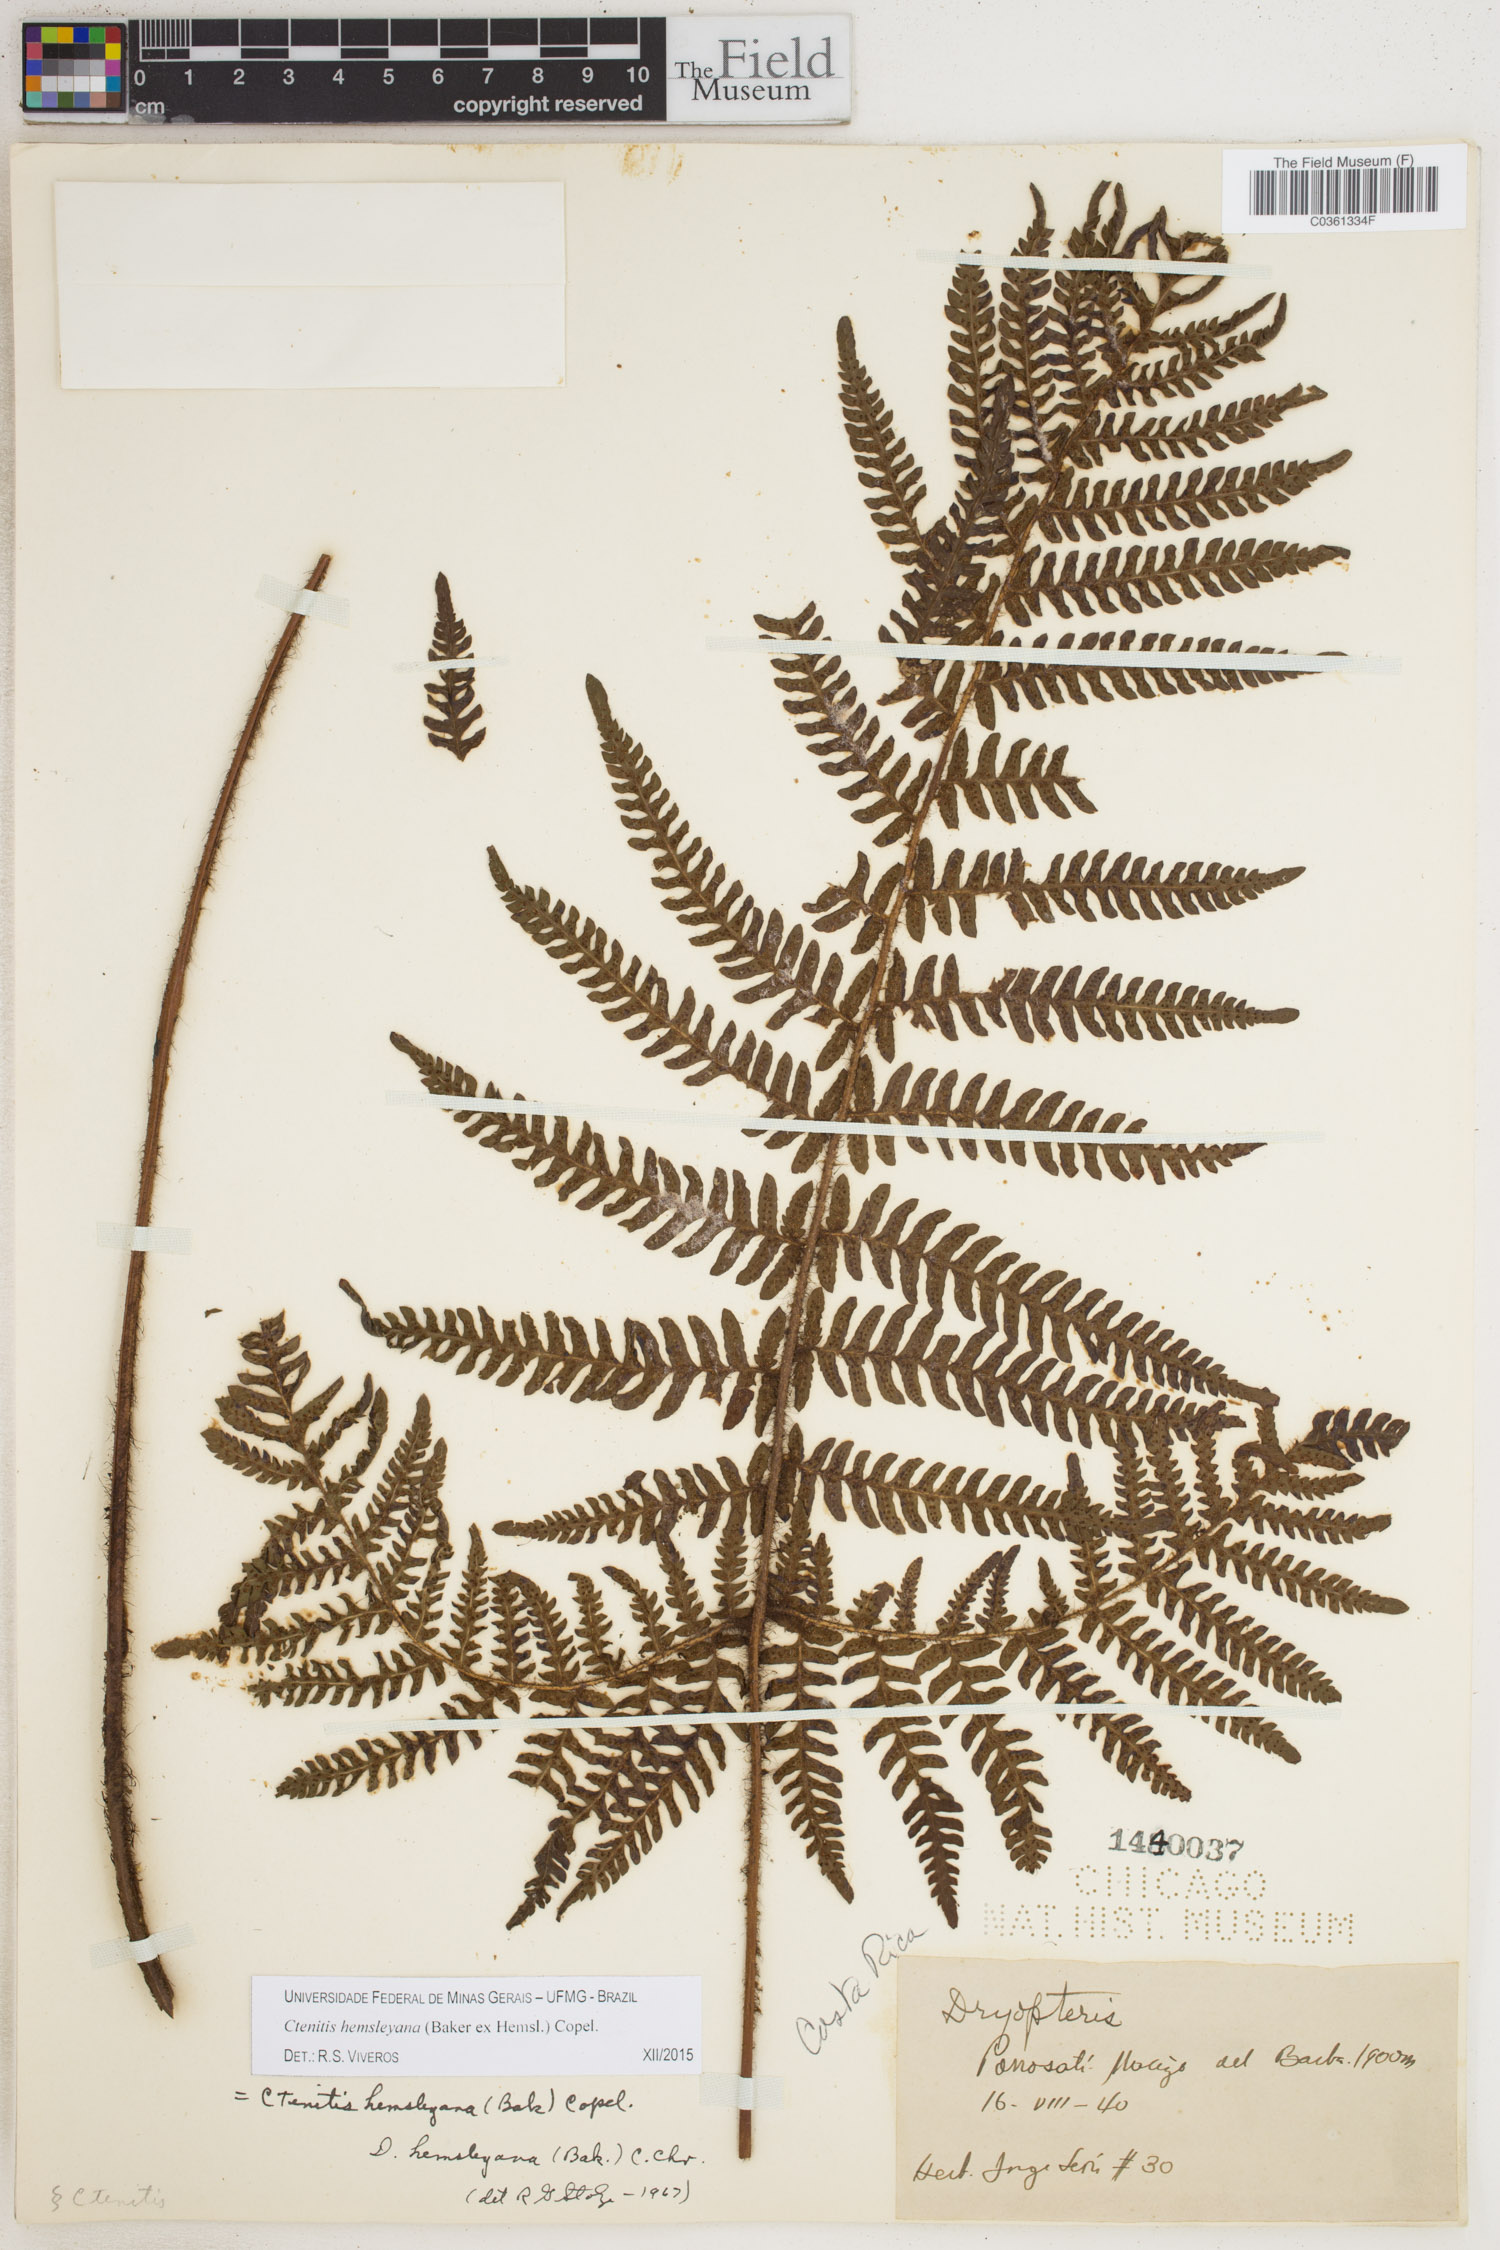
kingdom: Plantae
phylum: Tracheophyta
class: Polypodiopsida
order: Polypodiales
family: Dryopteridaceae
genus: Ctenitis
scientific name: Ctenitis hemsleyana
